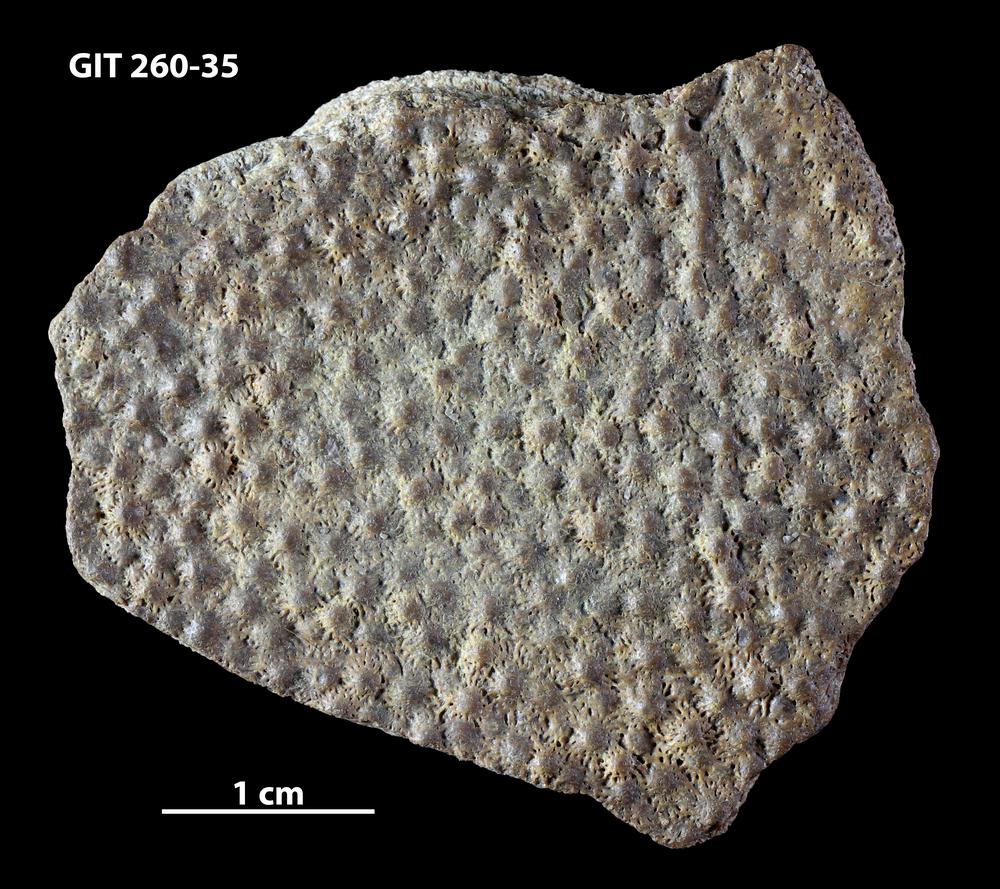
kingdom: Animalia
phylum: Chordata
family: Homostiidae
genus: Homostius
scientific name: Homostius
